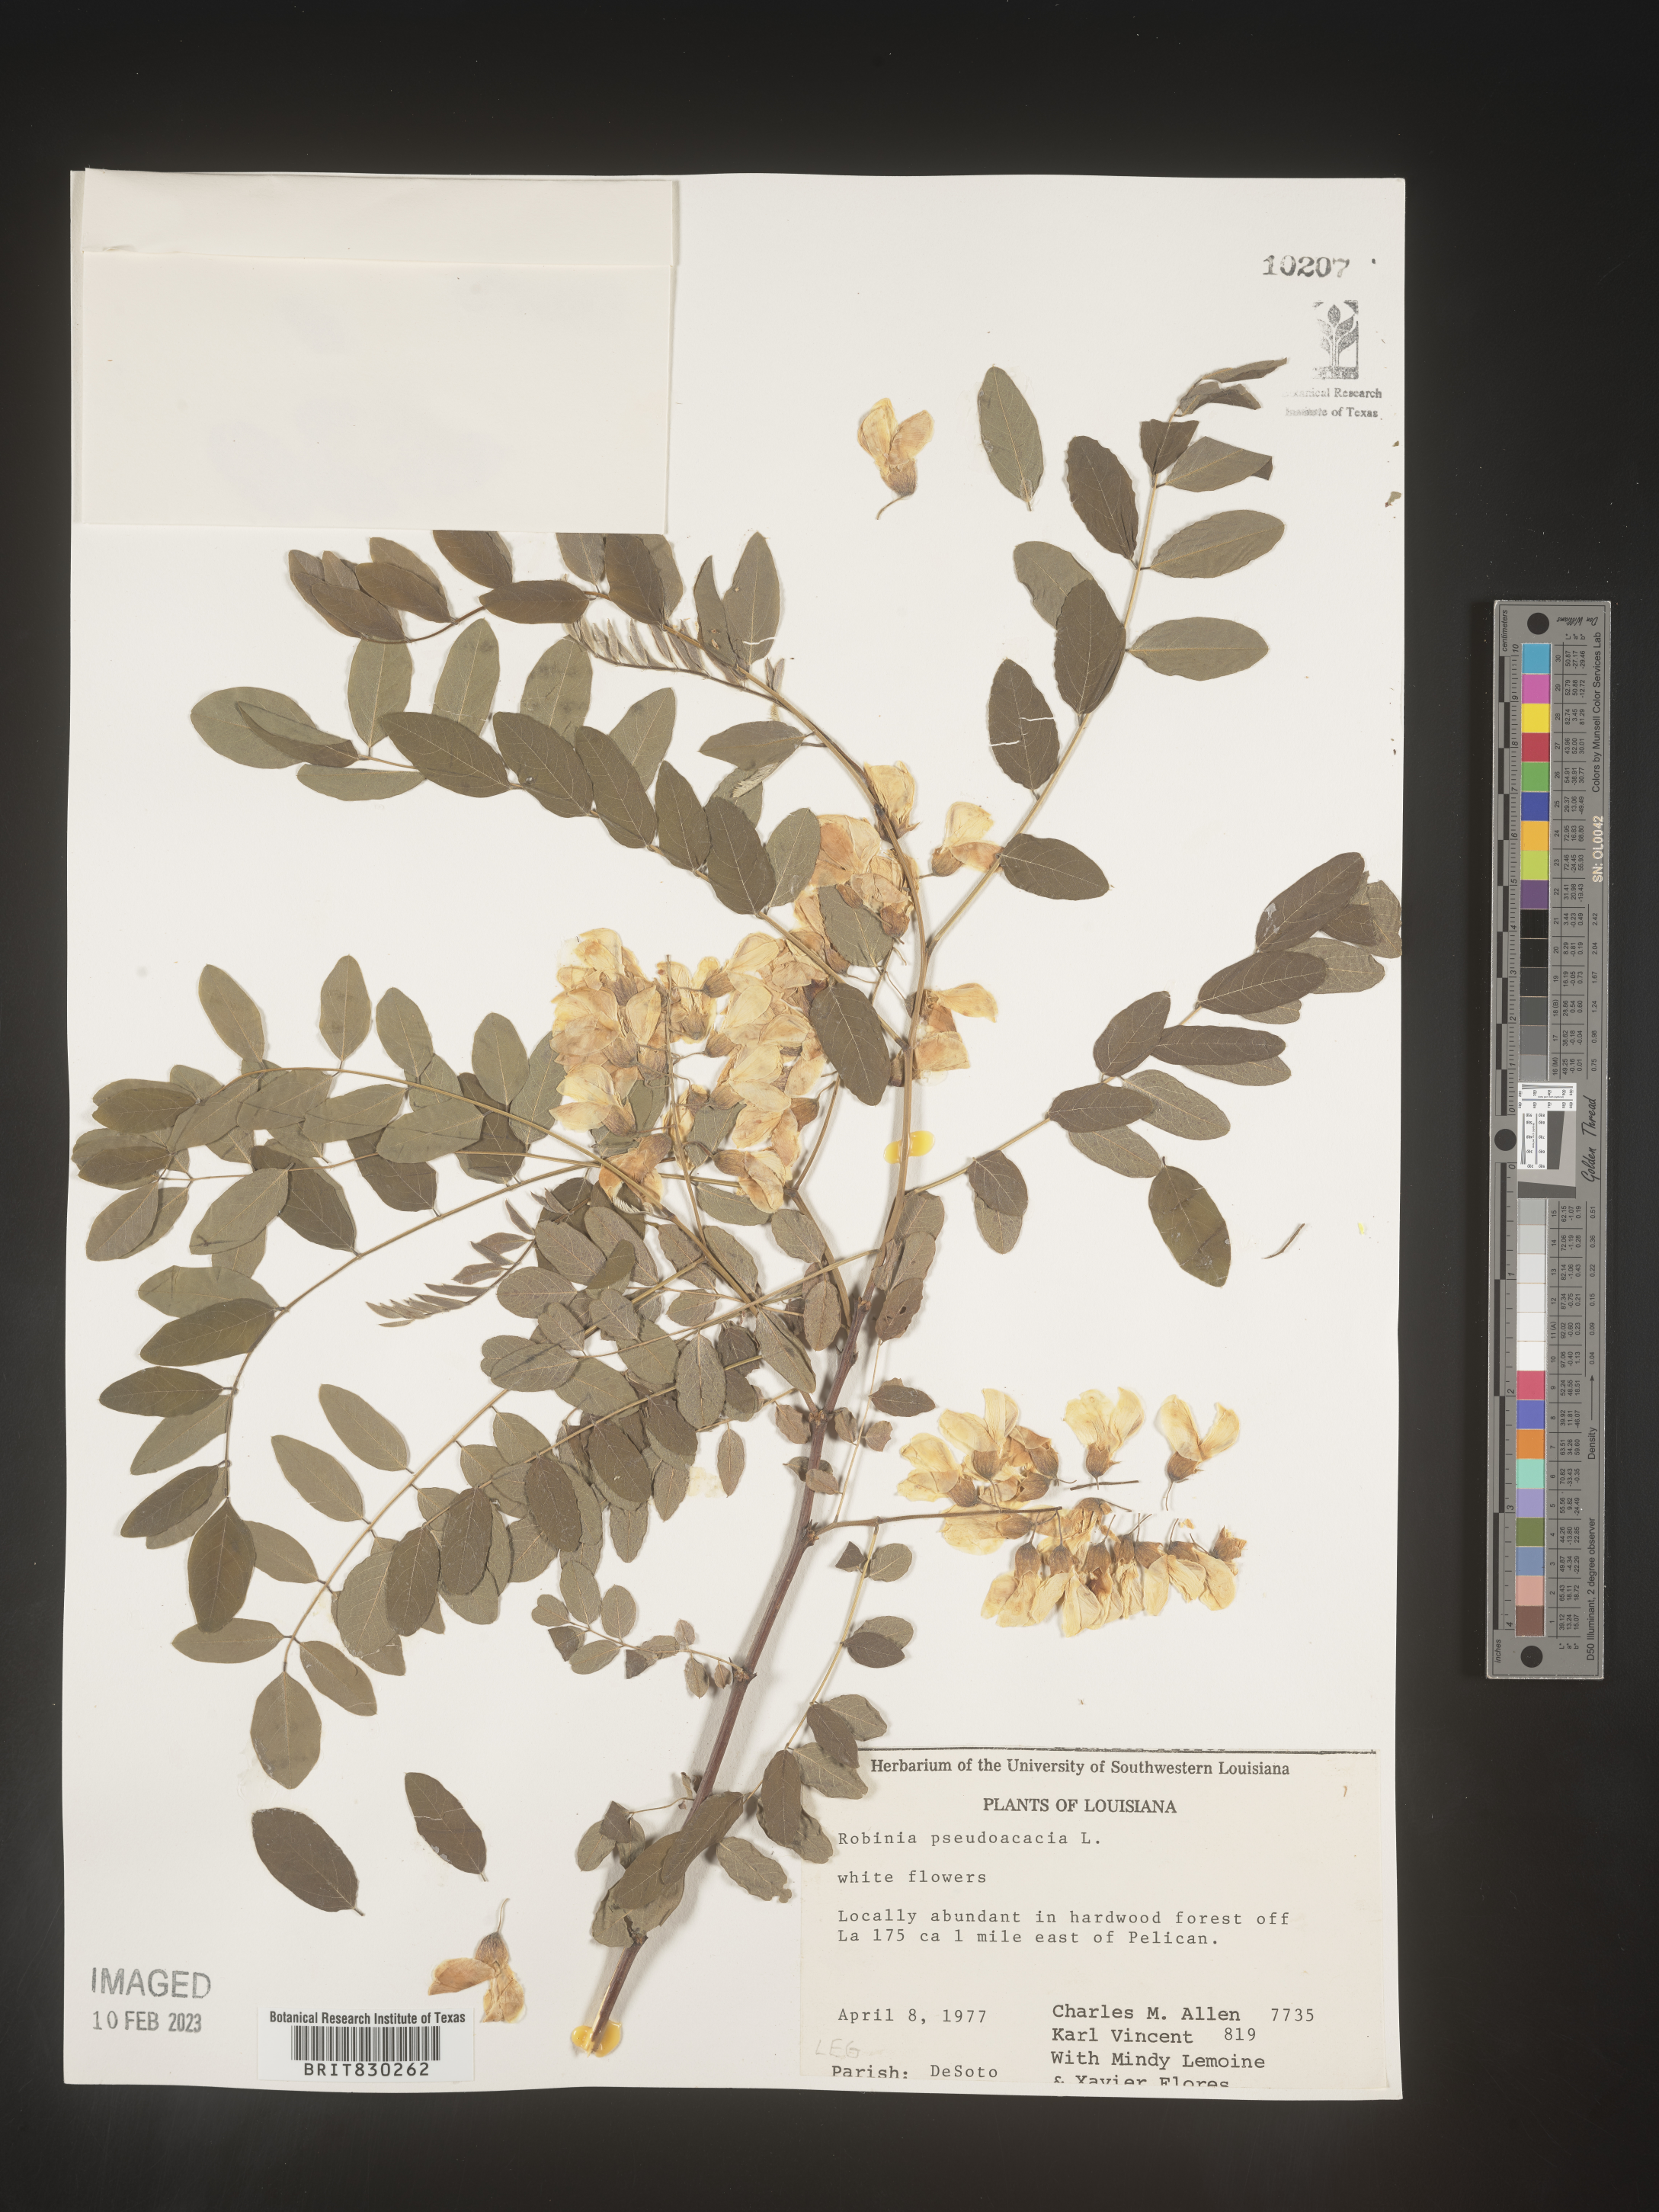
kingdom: Plantae
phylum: Tracheophyta
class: Magnoliopsida
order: Fabales
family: Fabaceae
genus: Robinia
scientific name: Robinia pseudoacacia
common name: Black locust
